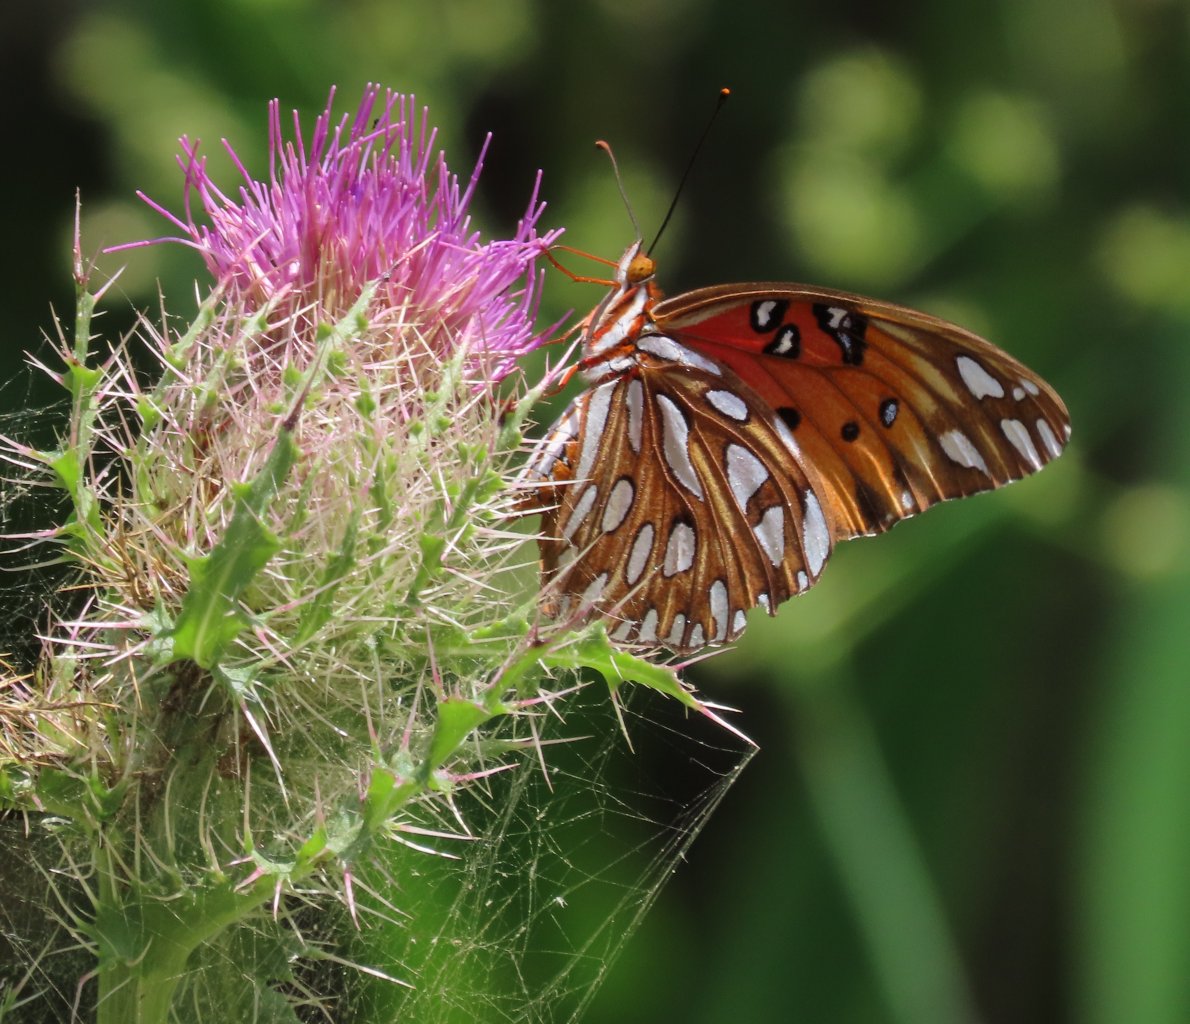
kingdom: Animalia
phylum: Arthropoda
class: Insecta
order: Lepidoptera
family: Nymphalidae
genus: Dione
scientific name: Dione vanillae
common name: Gulf Fritillary
